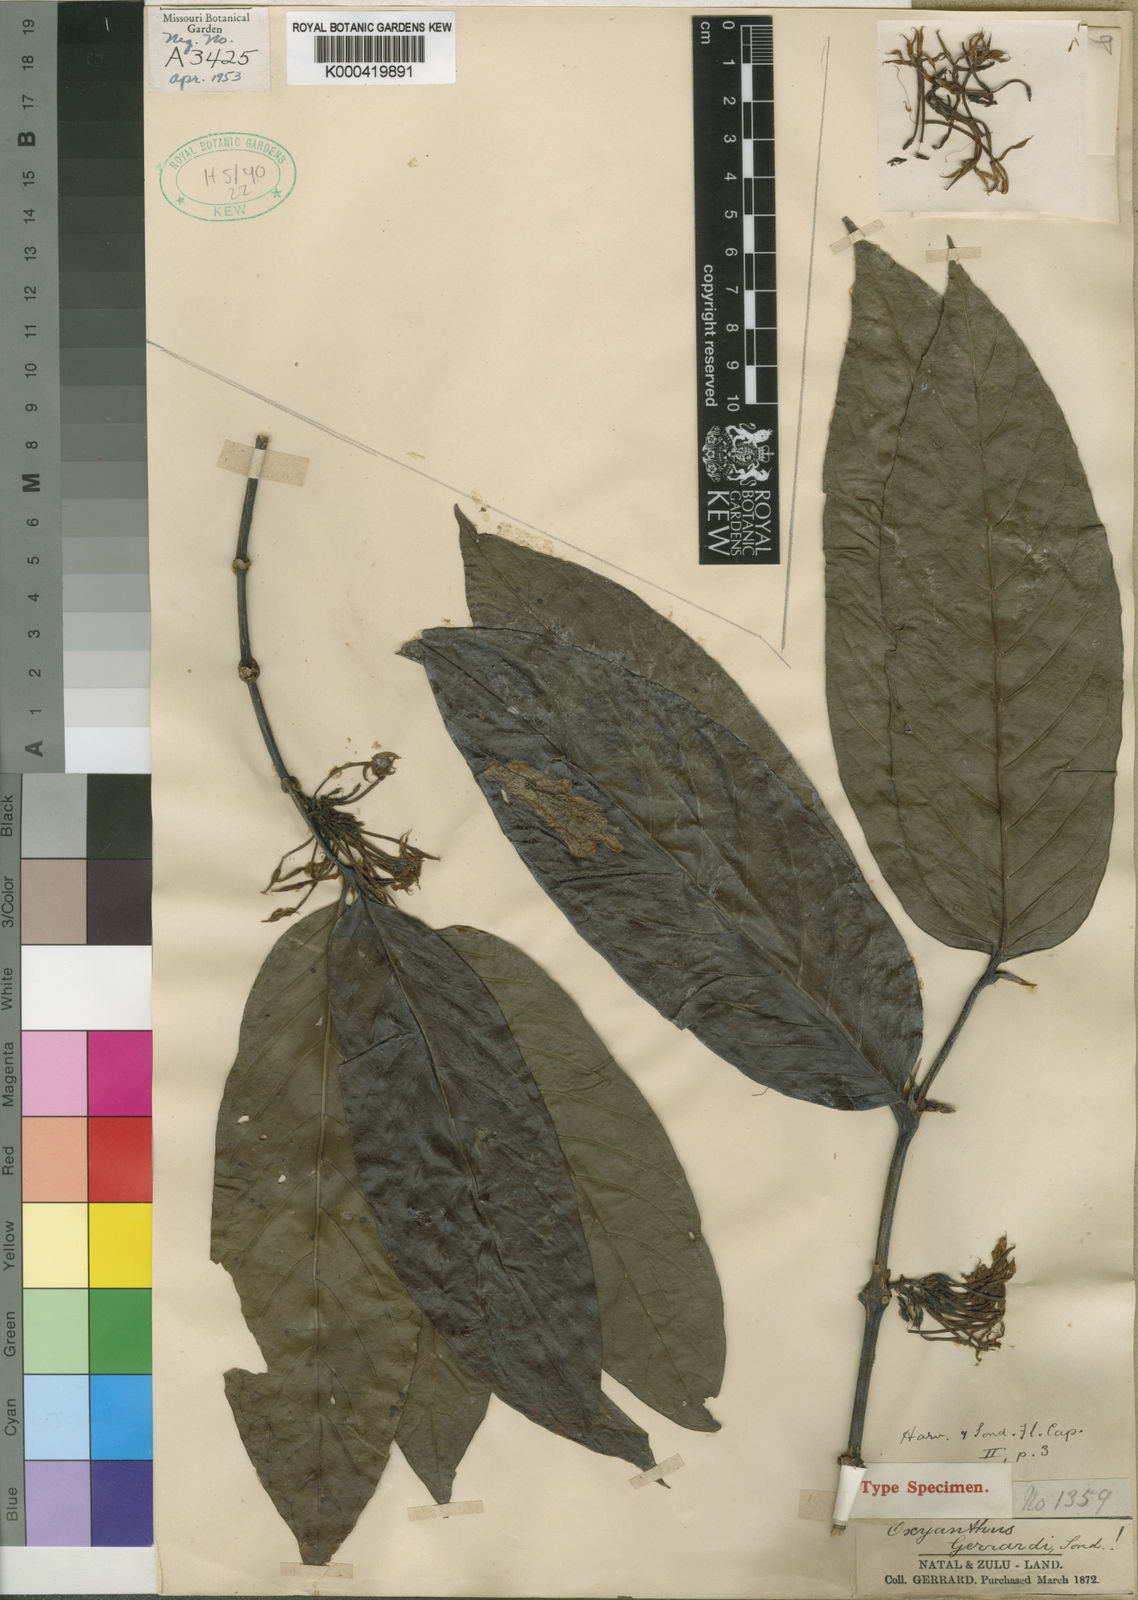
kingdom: Plantae
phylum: Tracheophyta
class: Magnoliopsida
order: Gentianales
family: Rubiaceae
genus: Oxyanthus
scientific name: Oxyanthus speciosus
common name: Whipstick loquat
